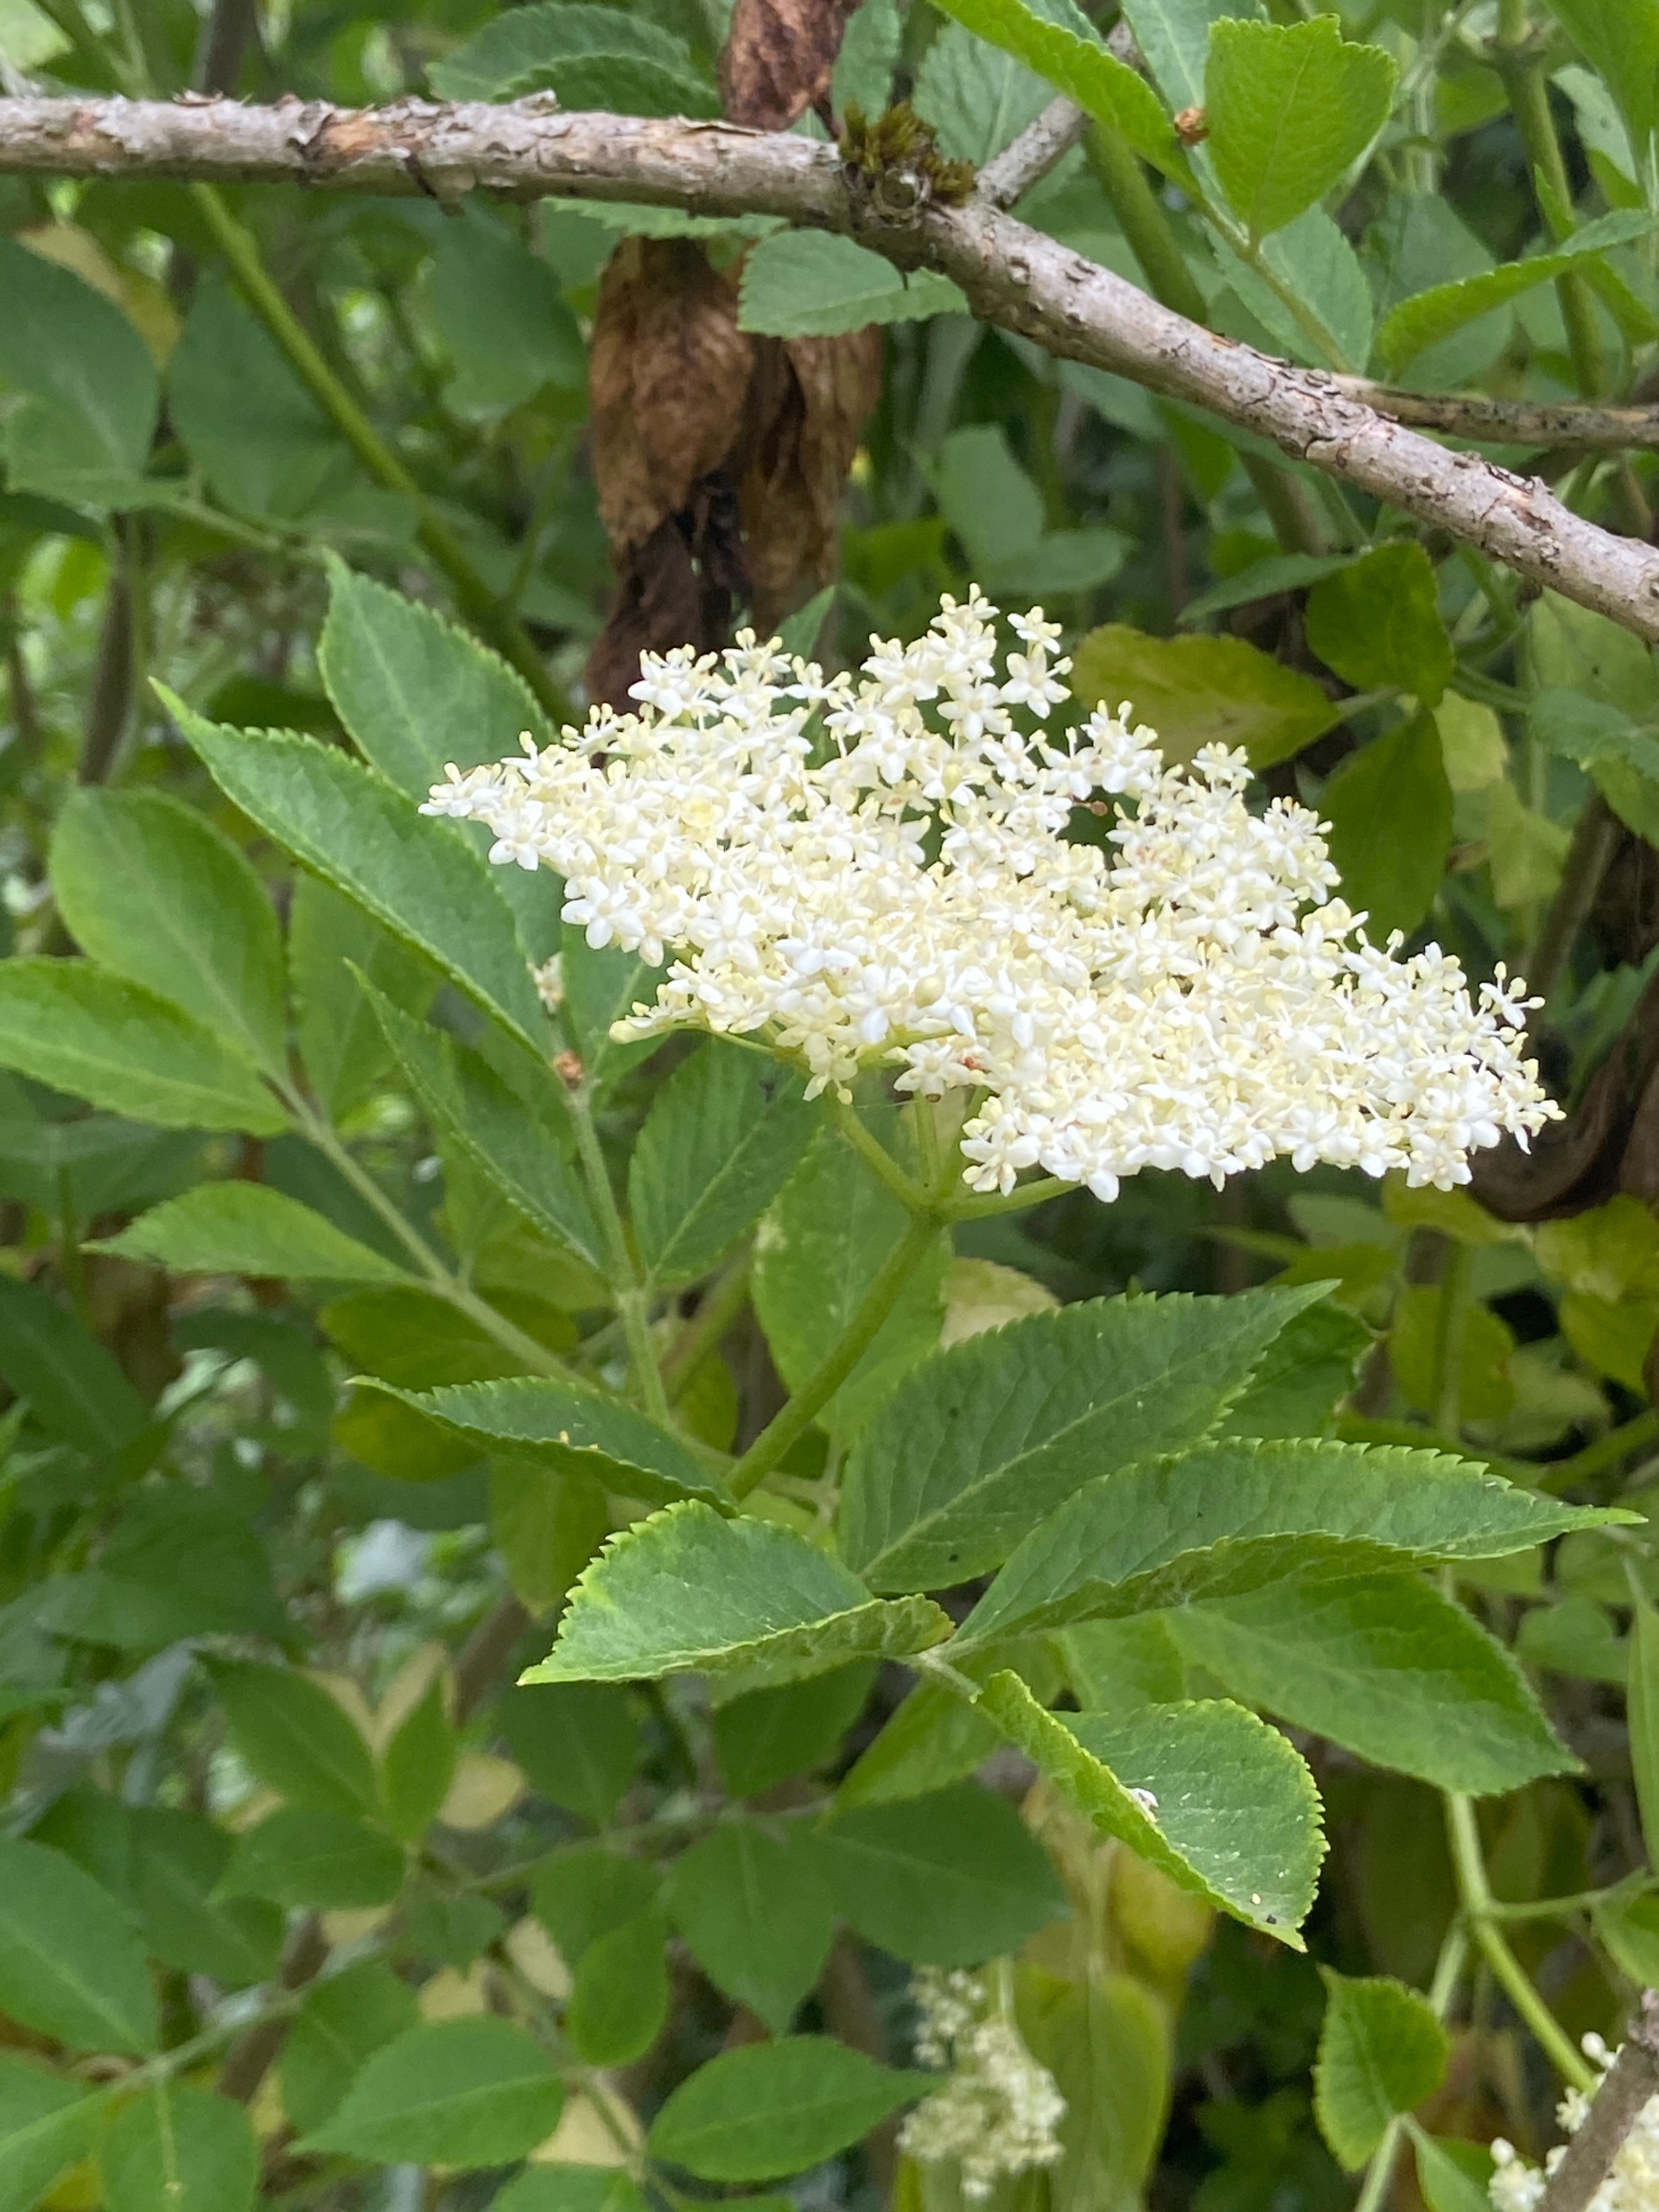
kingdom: Plantae
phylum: Tracheophyta
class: Magnoliopsida
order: Dipsacales
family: Viburnaceae
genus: Sambucus
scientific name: Sambucus nigra
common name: Almindelig hyld
